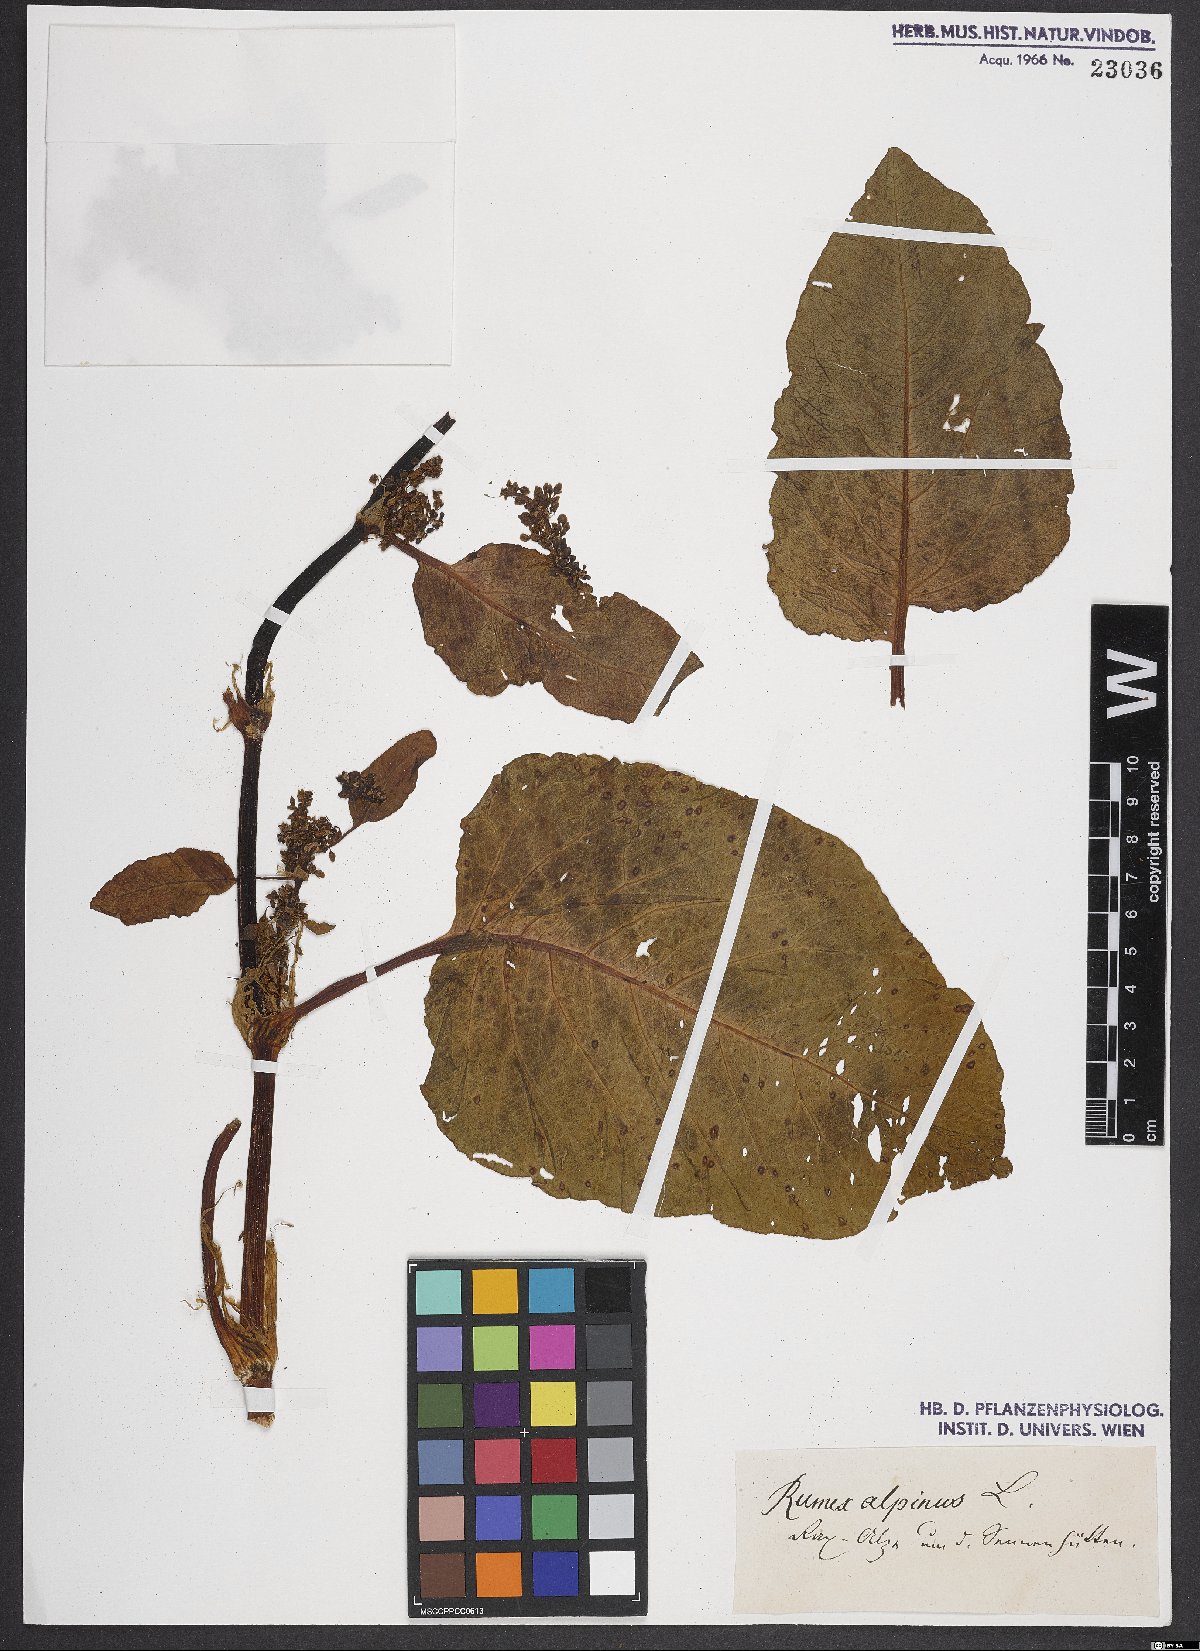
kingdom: Plantae
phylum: Tracheophyta
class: Magnoliopsida
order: Caryophyllales
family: Polygonaceae
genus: Rumex
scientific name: Rumex alpinus
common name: Alpine dock
